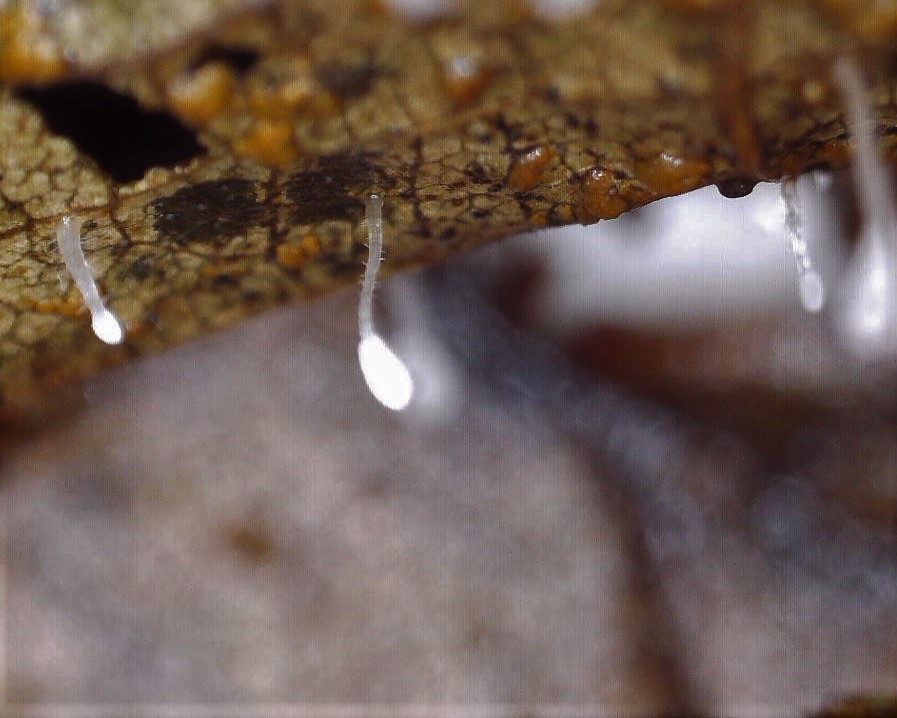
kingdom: Fungi
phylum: Basidiomycota
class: Agaricomycetes
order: Agaricales
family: Typhulaceae
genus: Typhula
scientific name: Typhula setipes
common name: liden trådkølle
